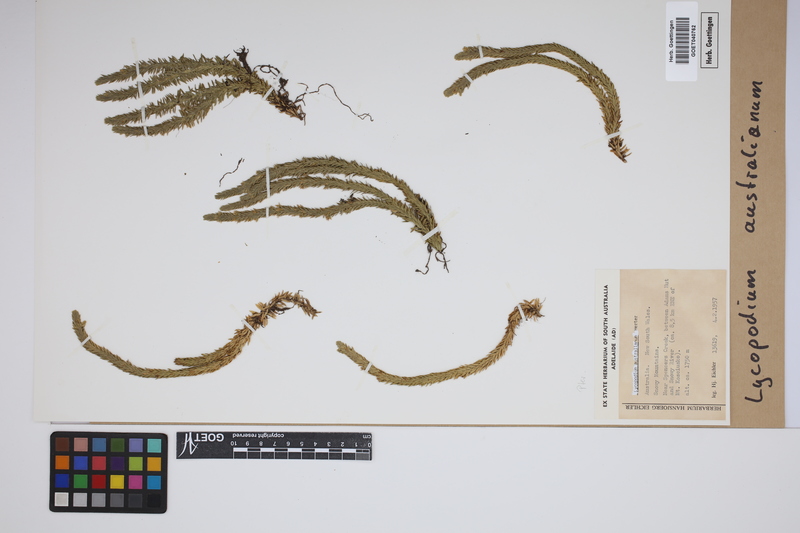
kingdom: Plantae
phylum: Tracheophyta
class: Lycopodiopsida
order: Lycopodiales
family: Lycopodiaceae
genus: Huperzia
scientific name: Huperzia australiana
